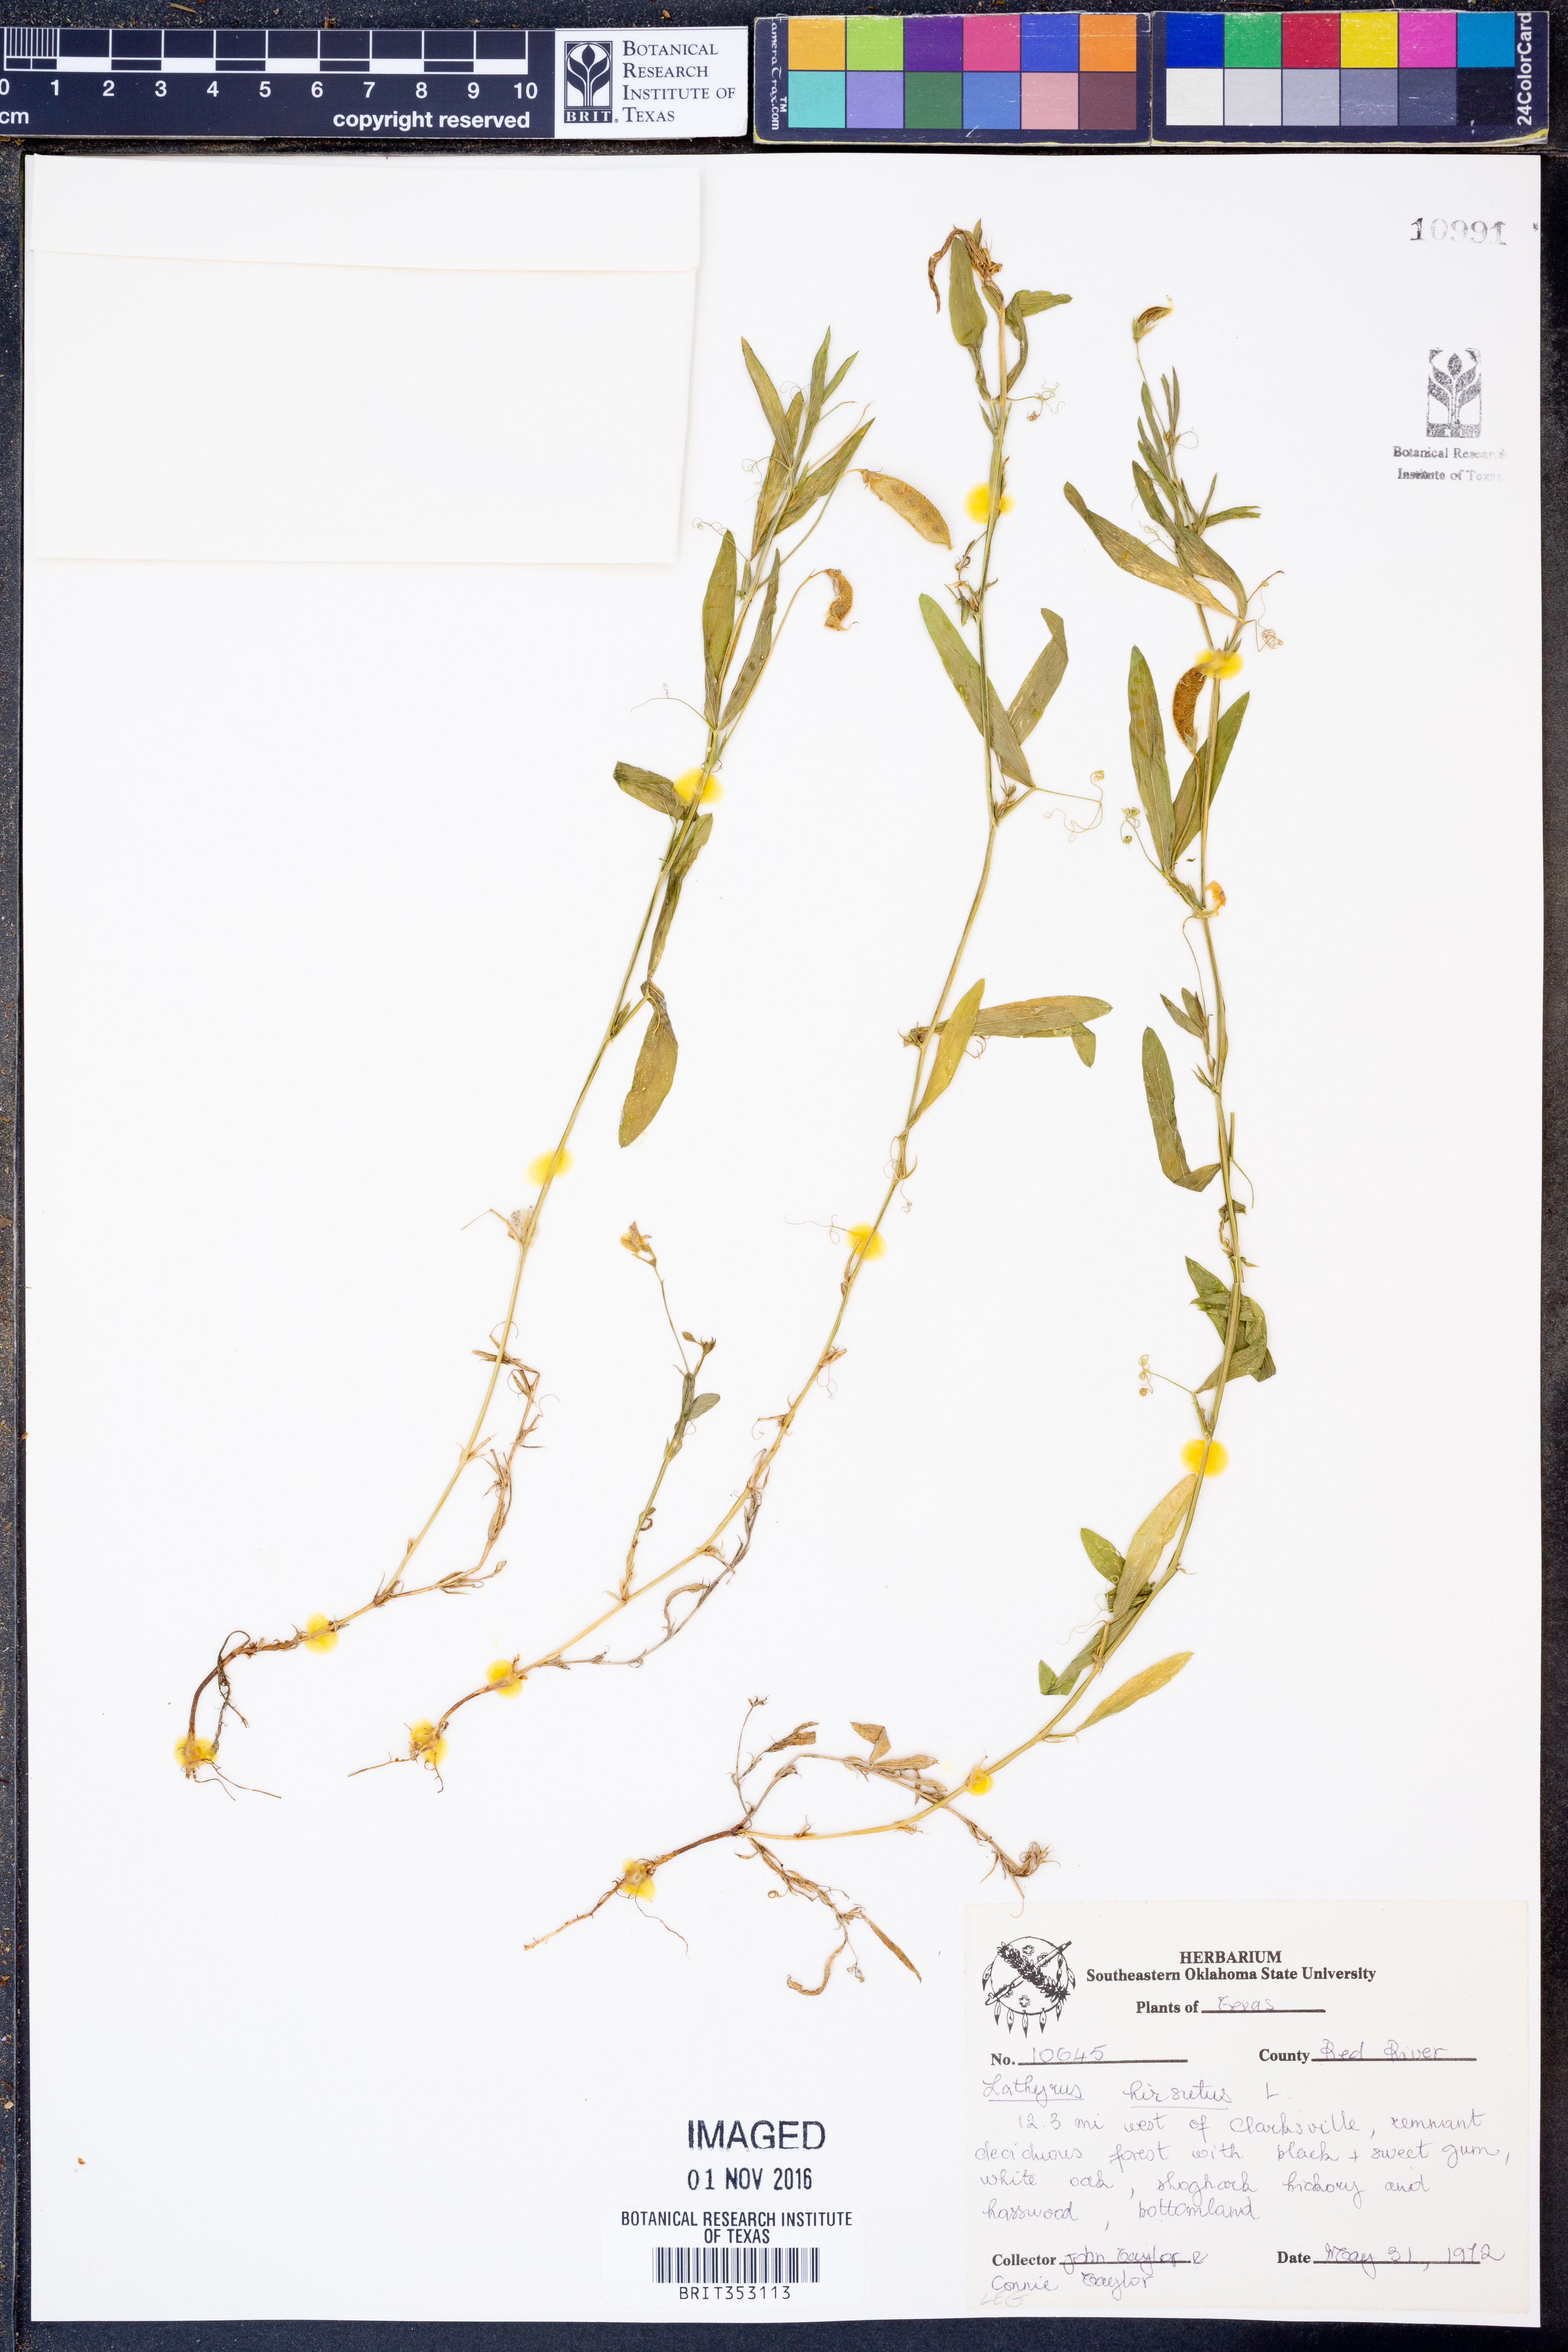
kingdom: Plantae
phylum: Tracheophyta
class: Magnoliopsida
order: Fabales
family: Fabaceae
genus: Lathyrus
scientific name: Lathyrus hirsutus
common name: Hairy vetchling
